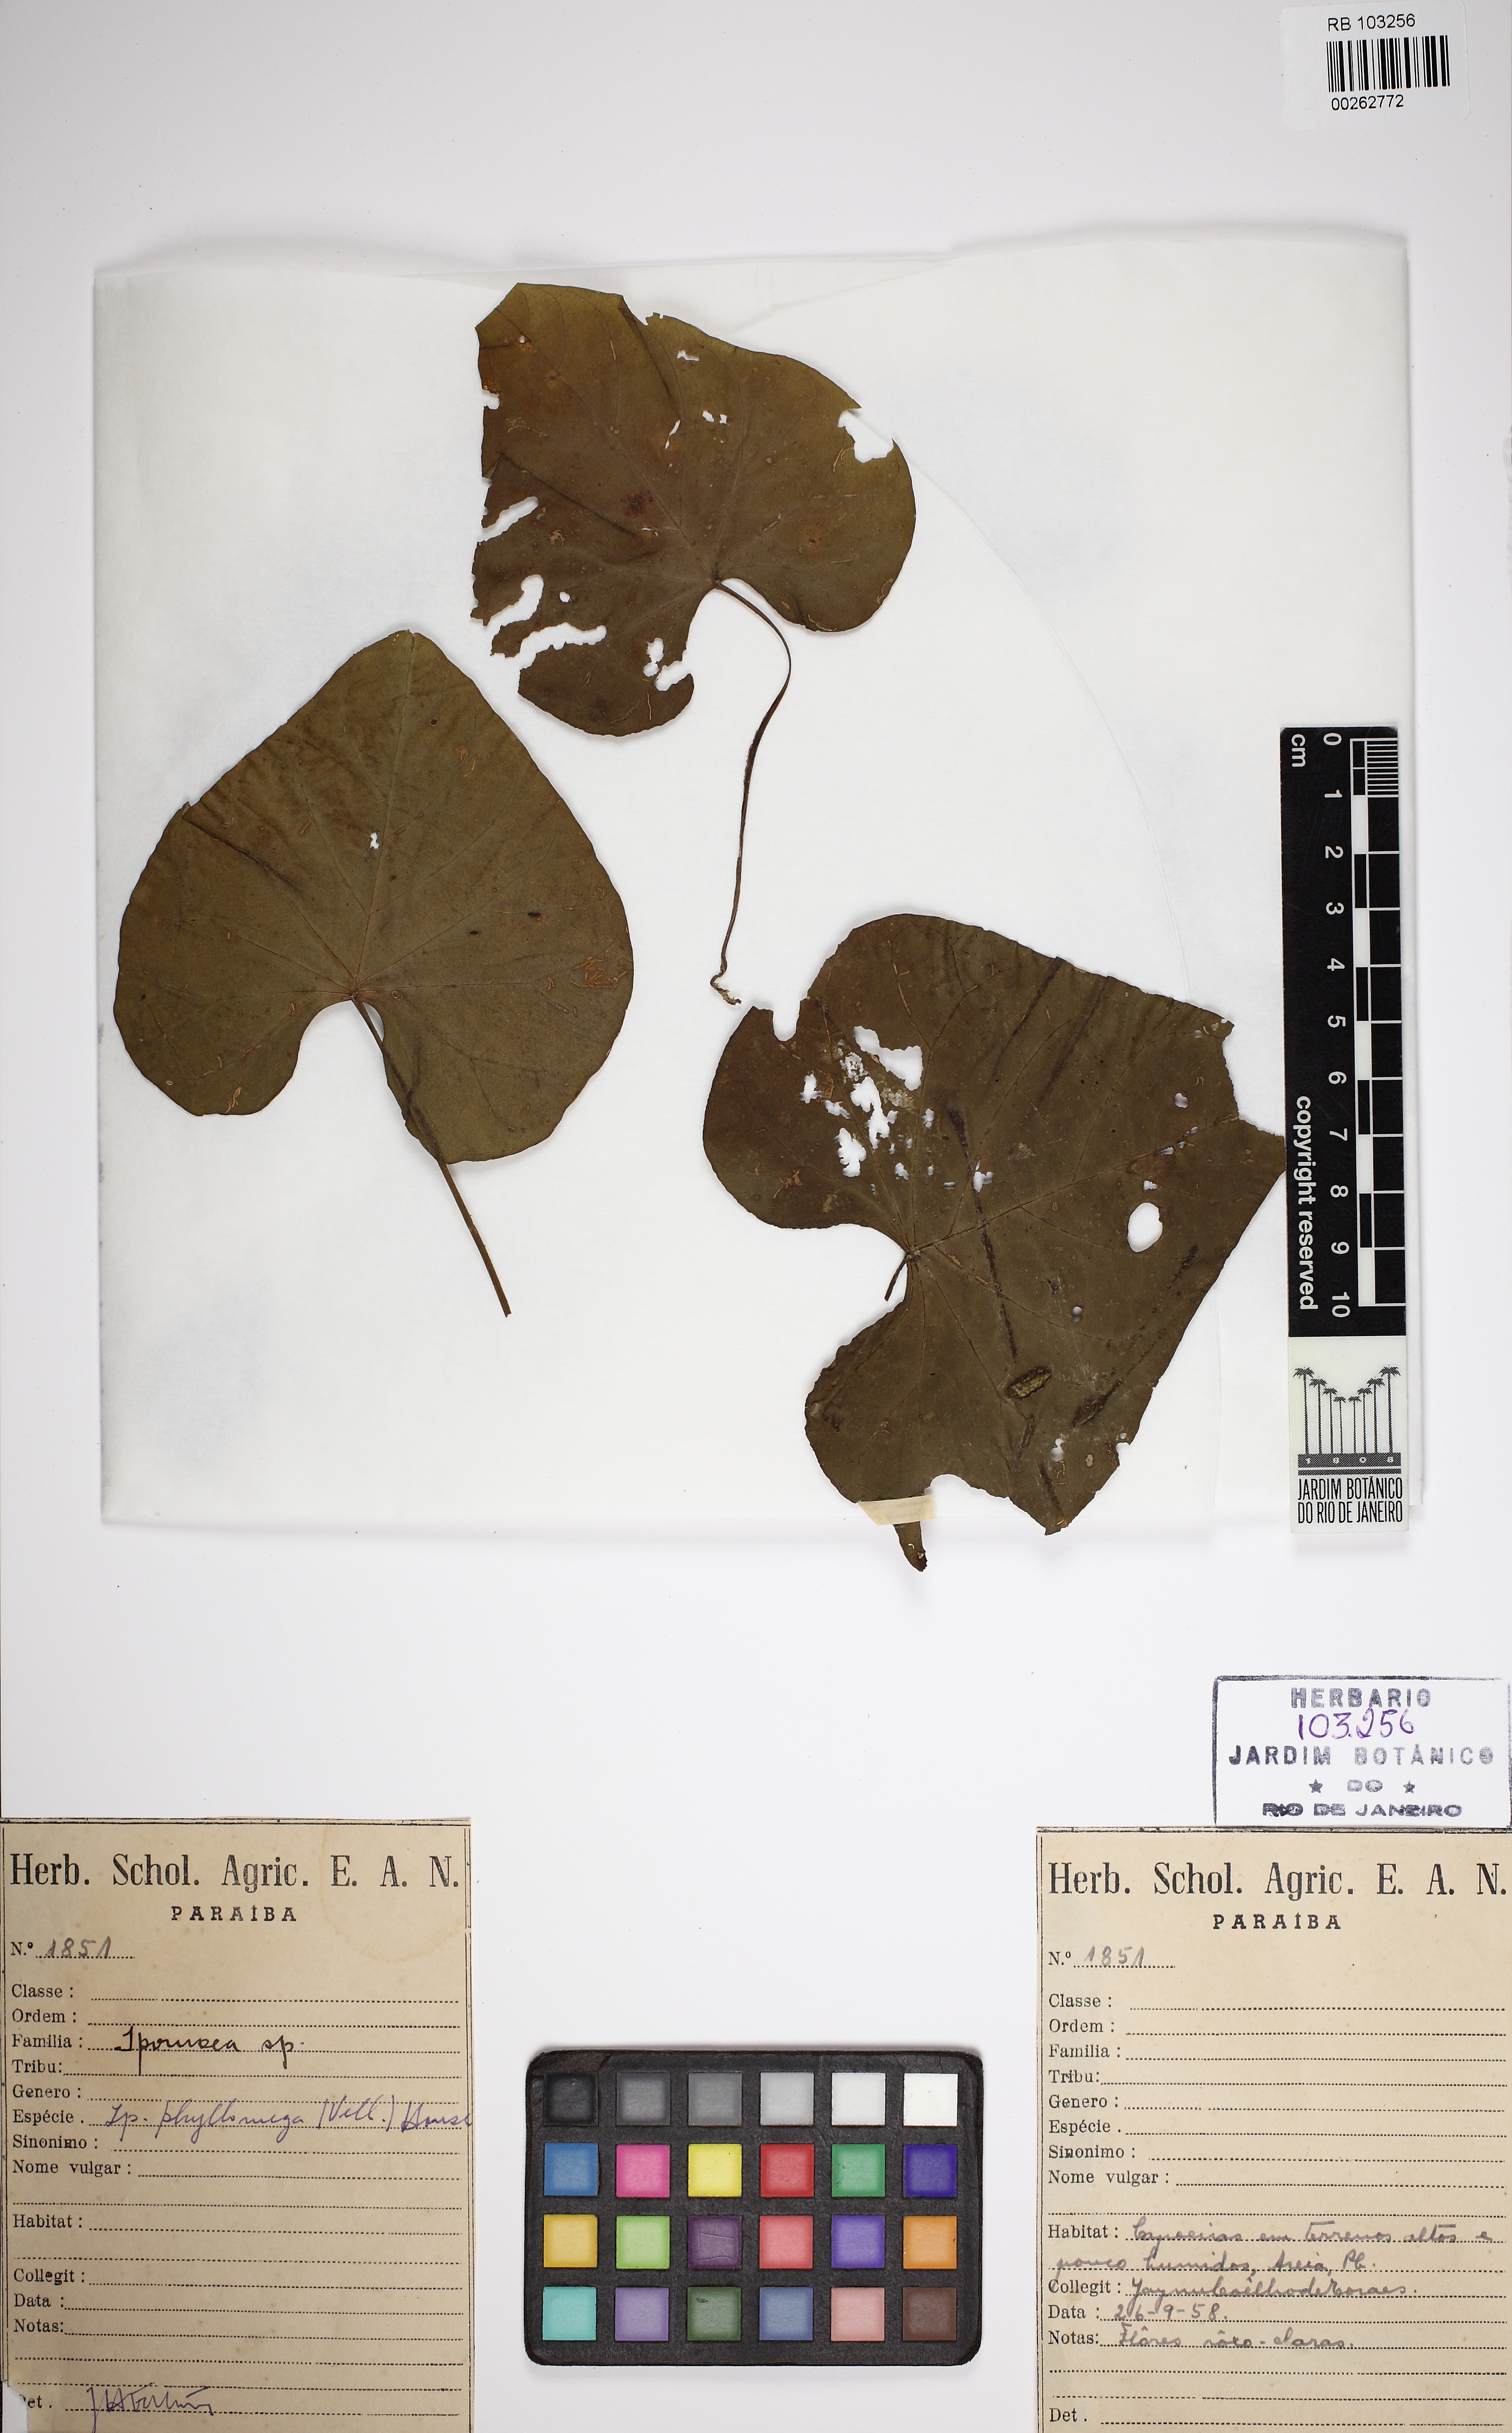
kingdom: Plantae
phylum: Tracheophyta
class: Magnoliopsida
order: Solanales
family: Convolvulaceae
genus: Ipomoea
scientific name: Ipomoea philomega
